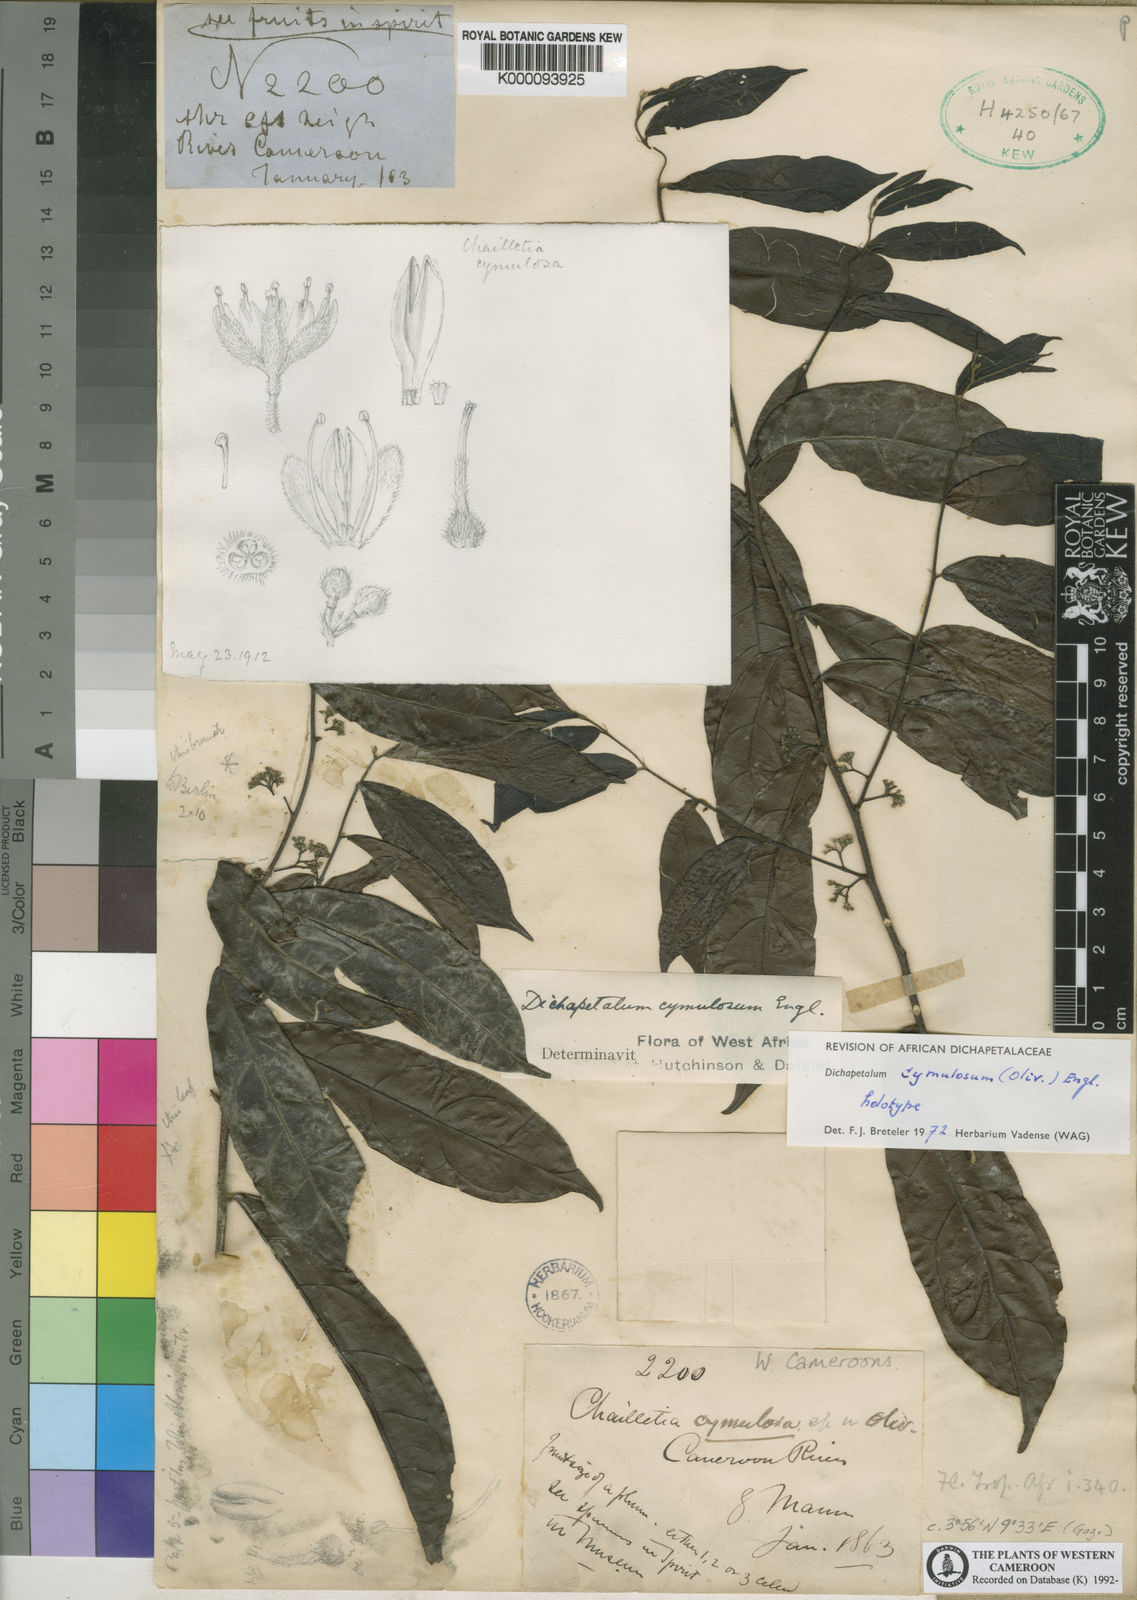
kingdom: Plantae
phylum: Tracheophyta
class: Magnoliopsida
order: Malpighiales
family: Dichapetalaceae
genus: Dichapetalum
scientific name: Dichapetalum cymulosum
